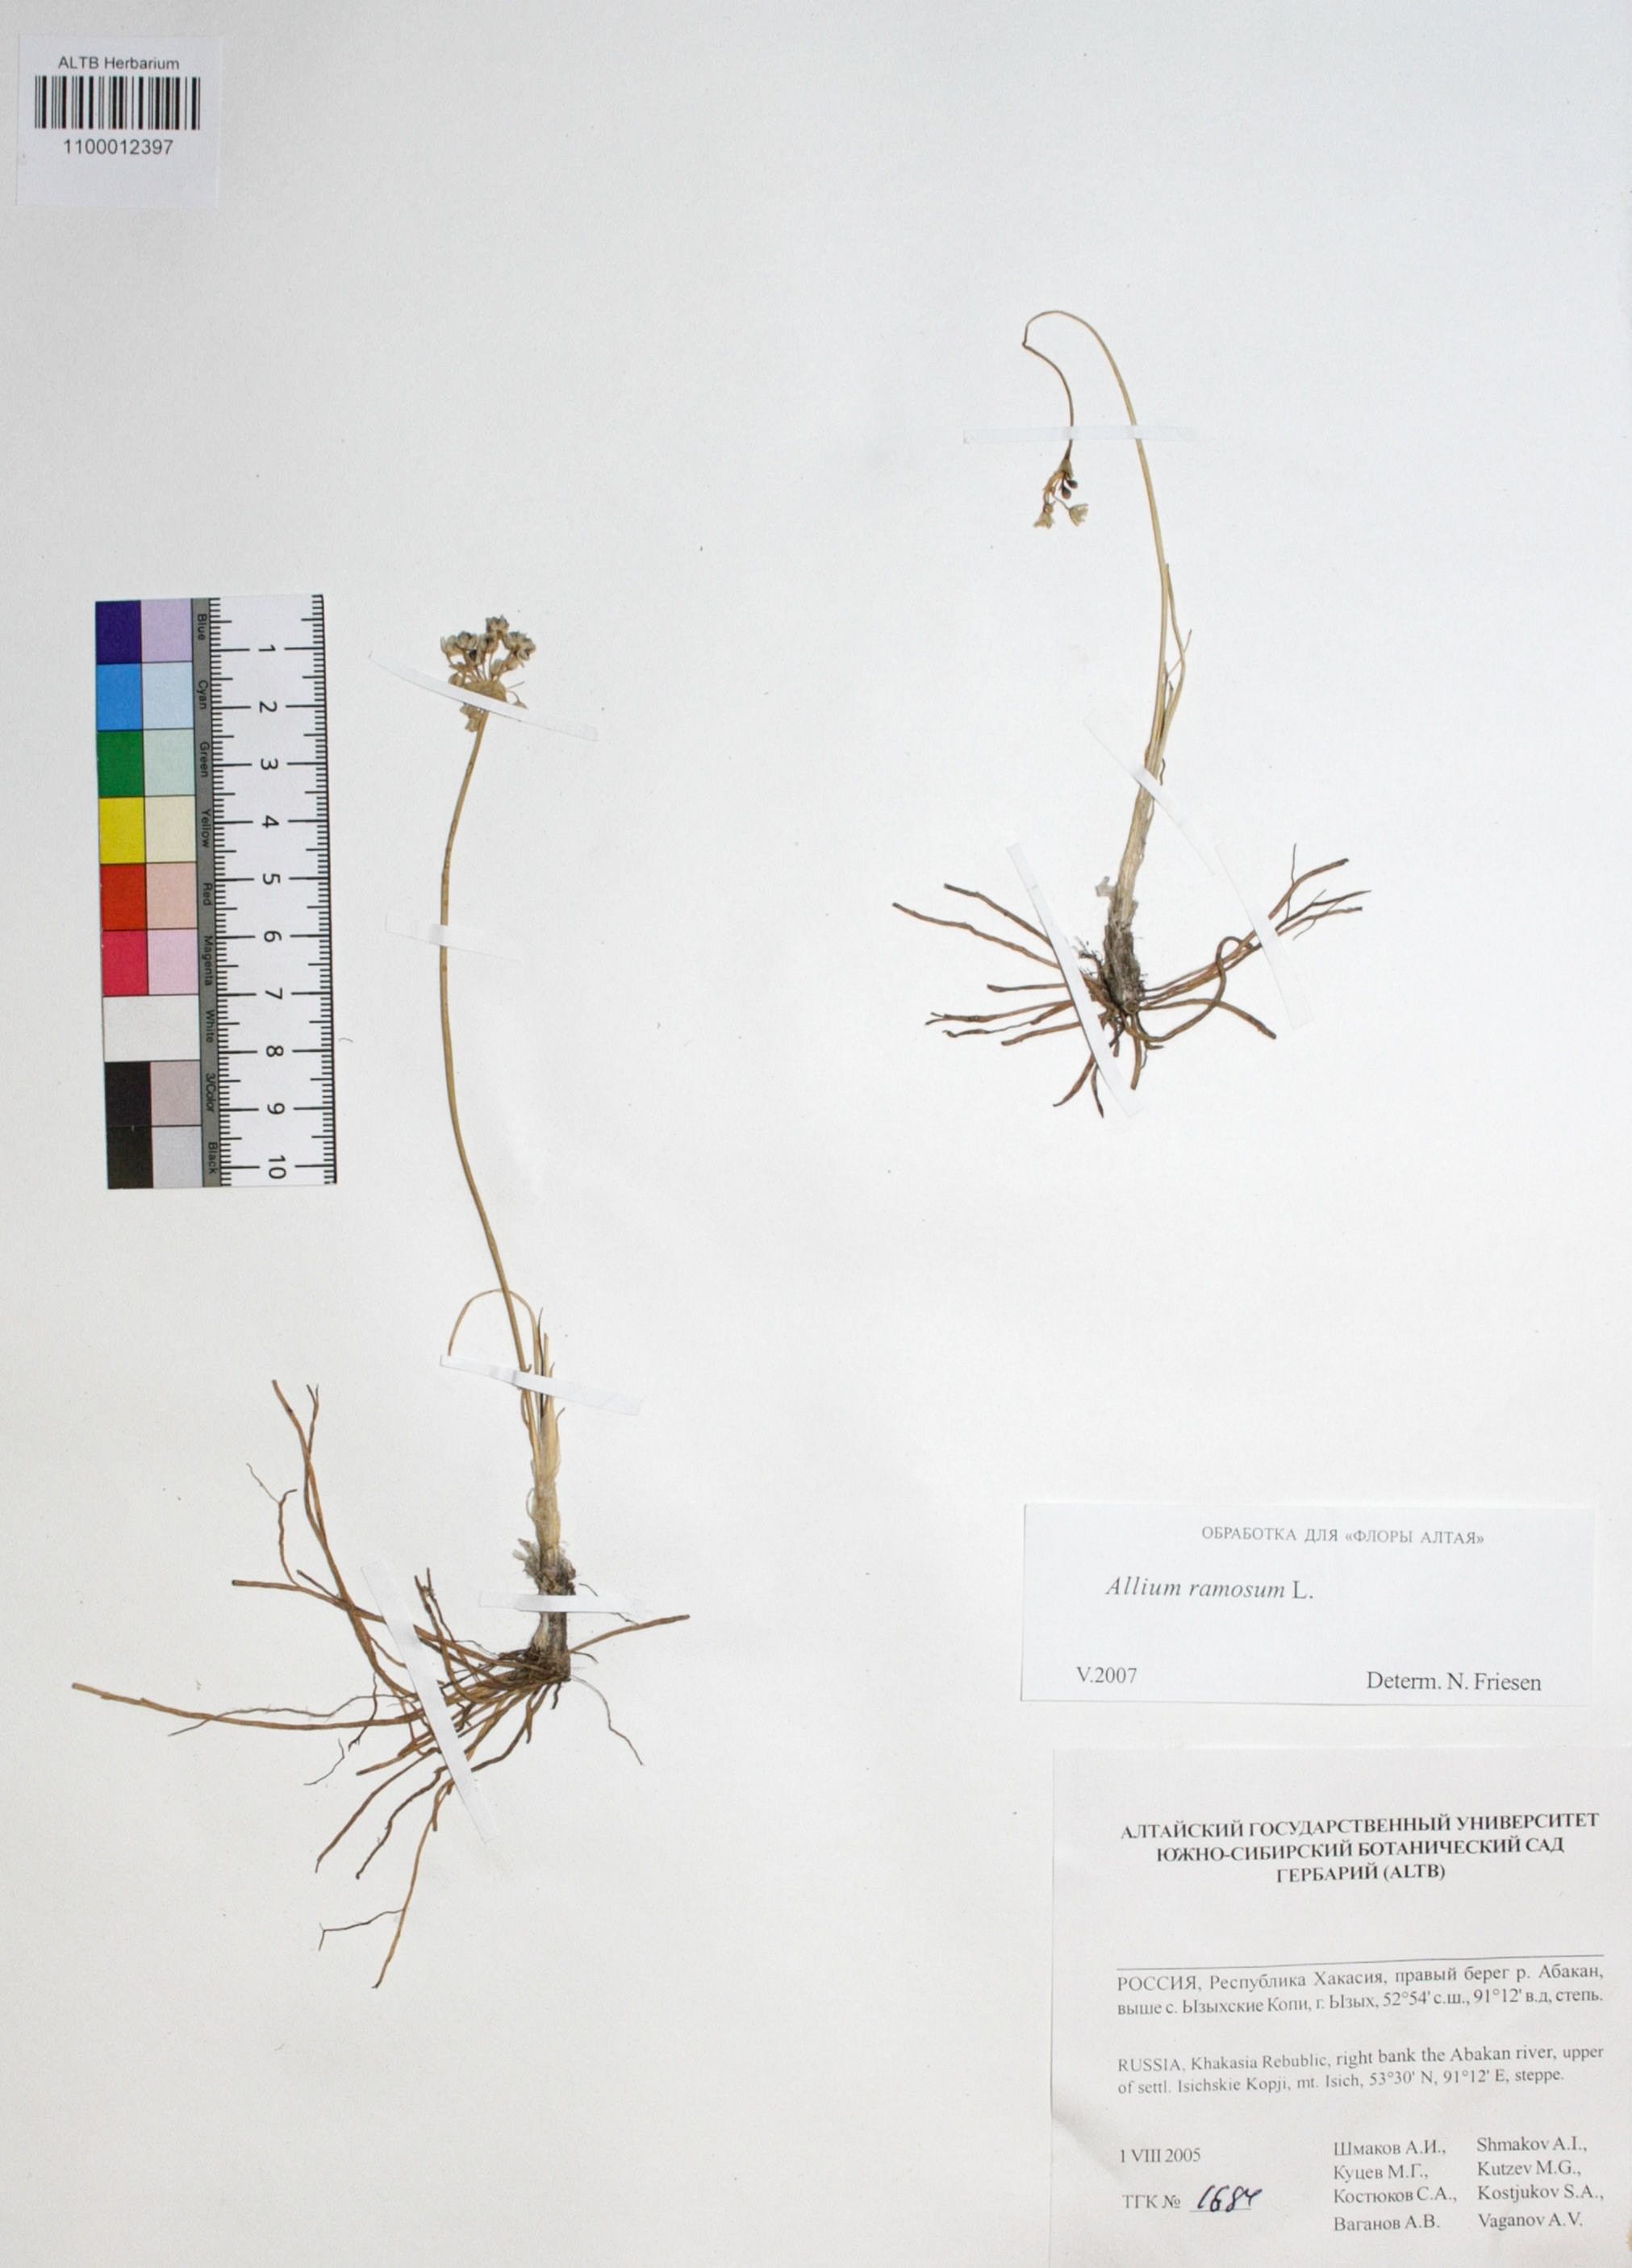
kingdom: Plantae
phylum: Tracheophyta
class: Liliopsida
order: Asparagales
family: Amaryllidaceae
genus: Allium
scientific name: Allium ramosum
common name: Fragrant garlic
